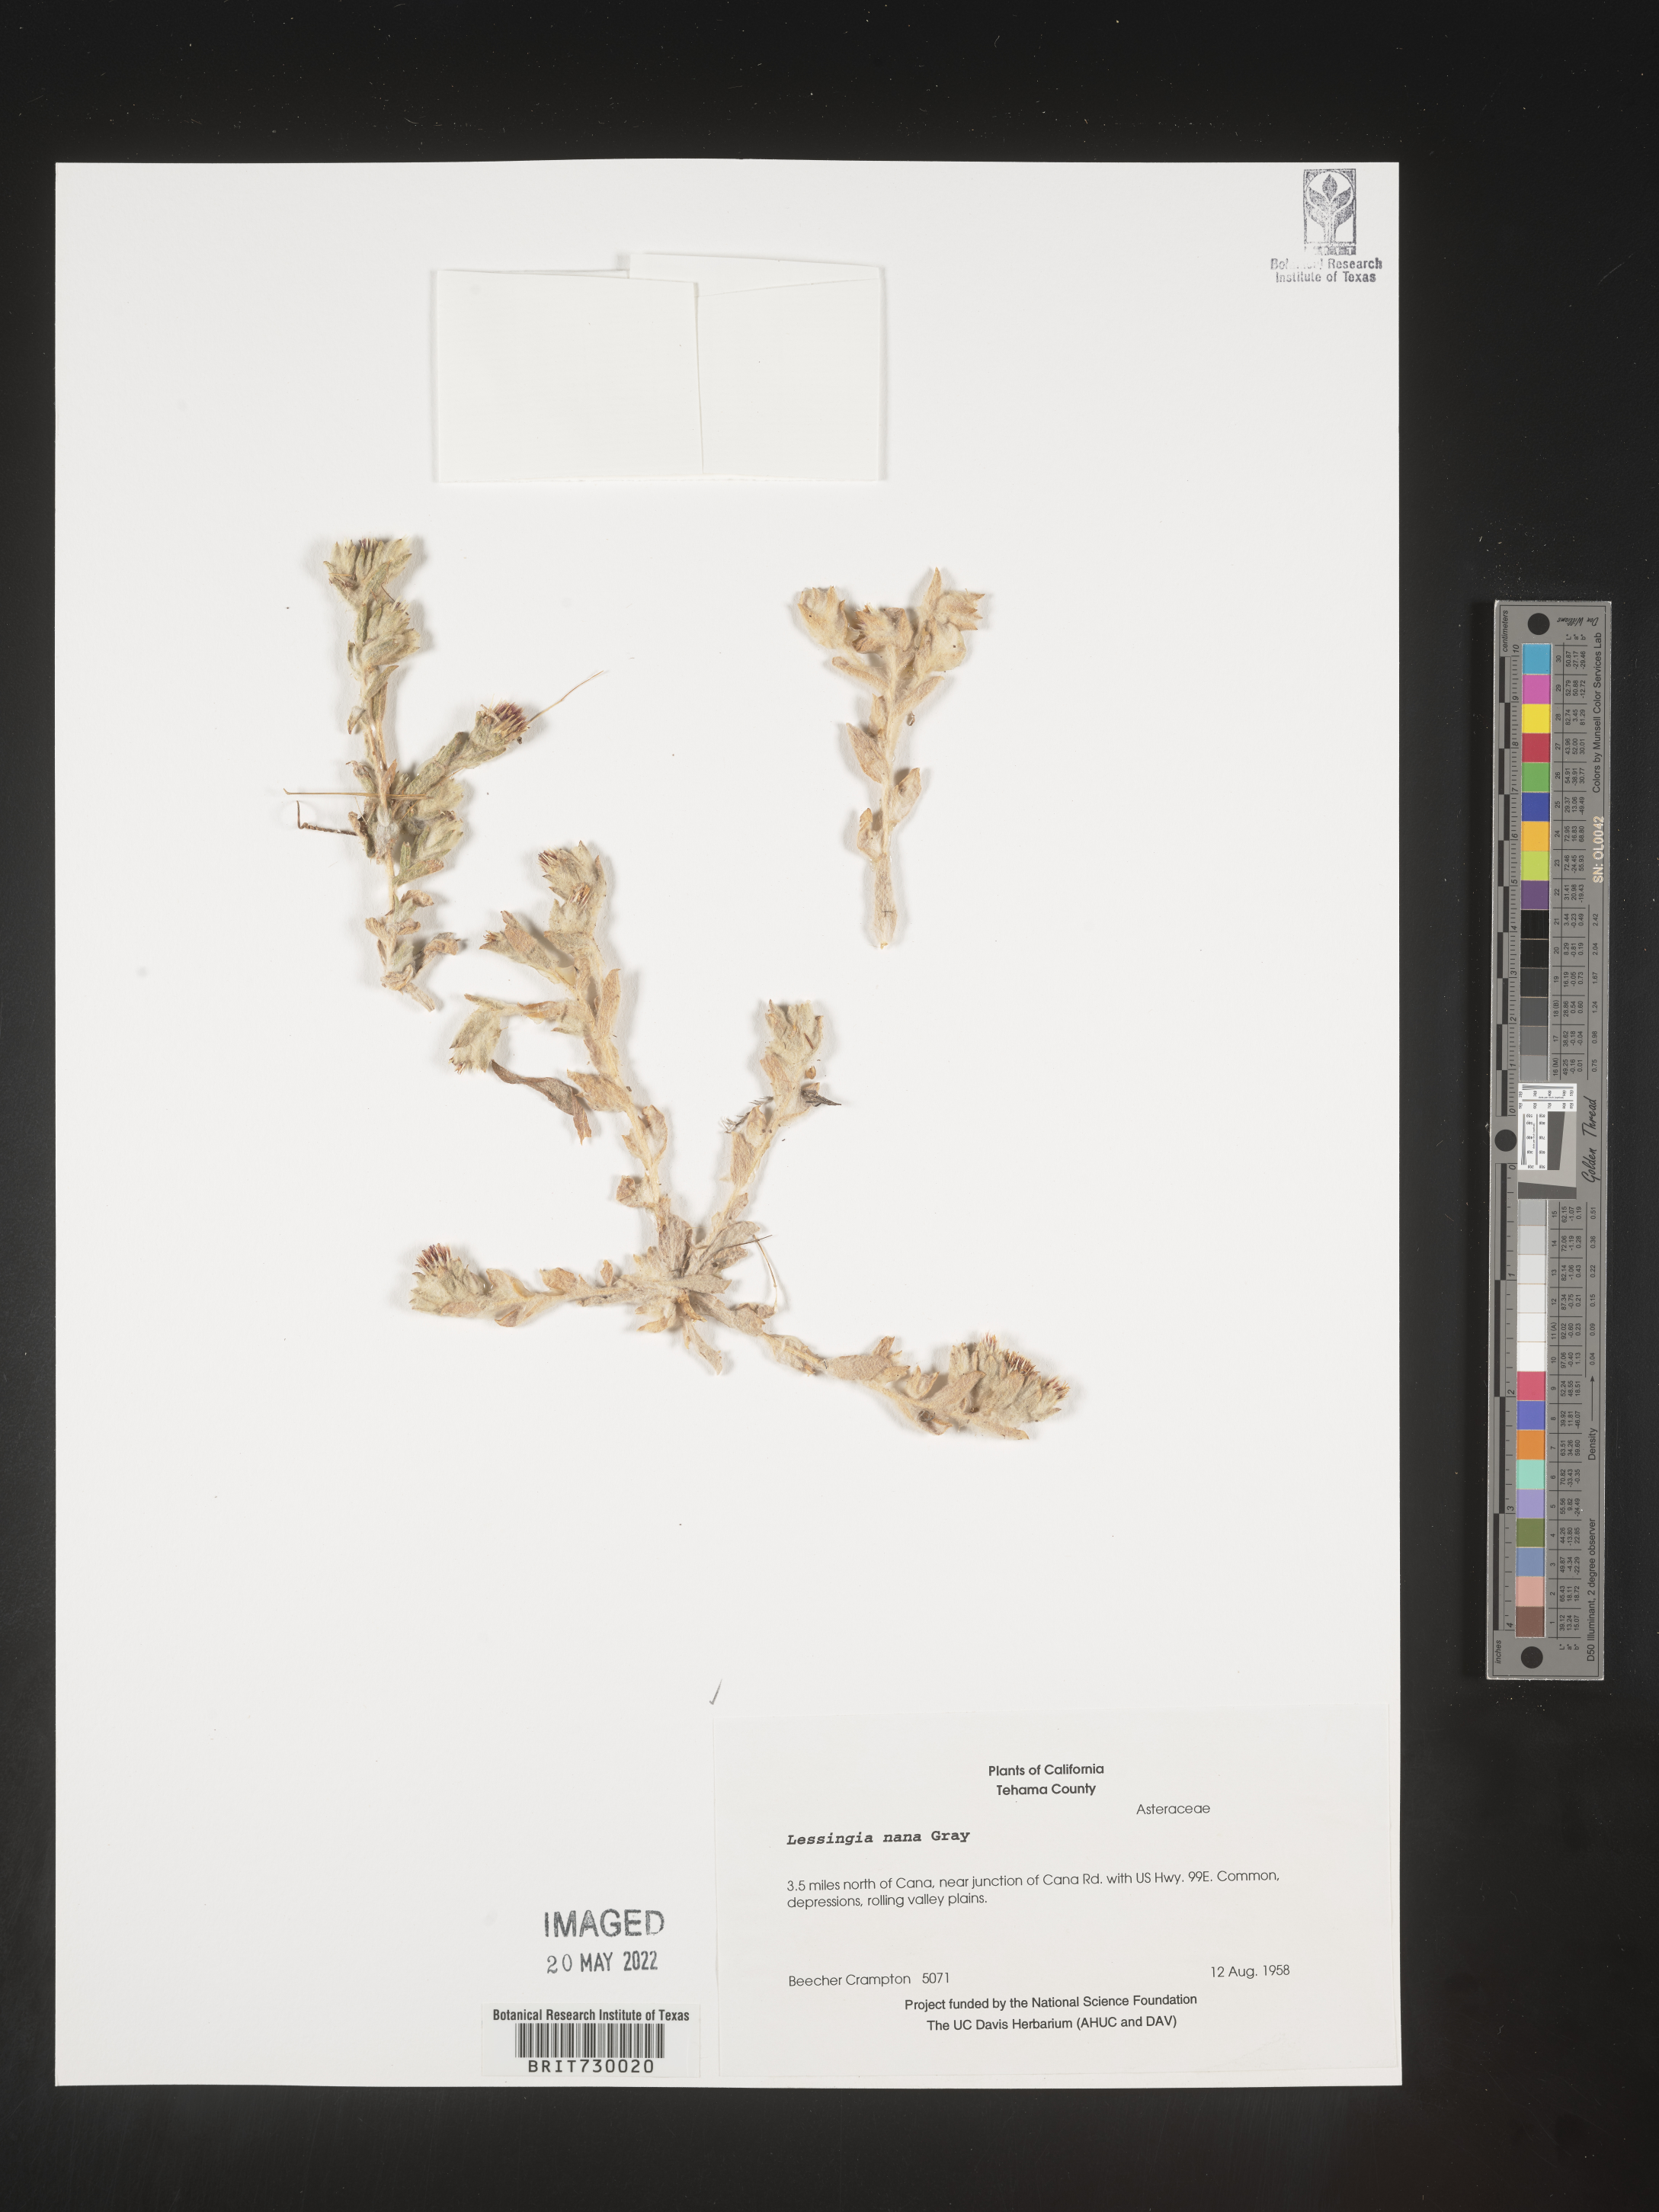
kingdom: Plantae
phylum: Tracheophyta
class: Magnoliopsida
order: Asterales
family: Asteraceae
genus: Lessingia
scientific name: Lessingia
